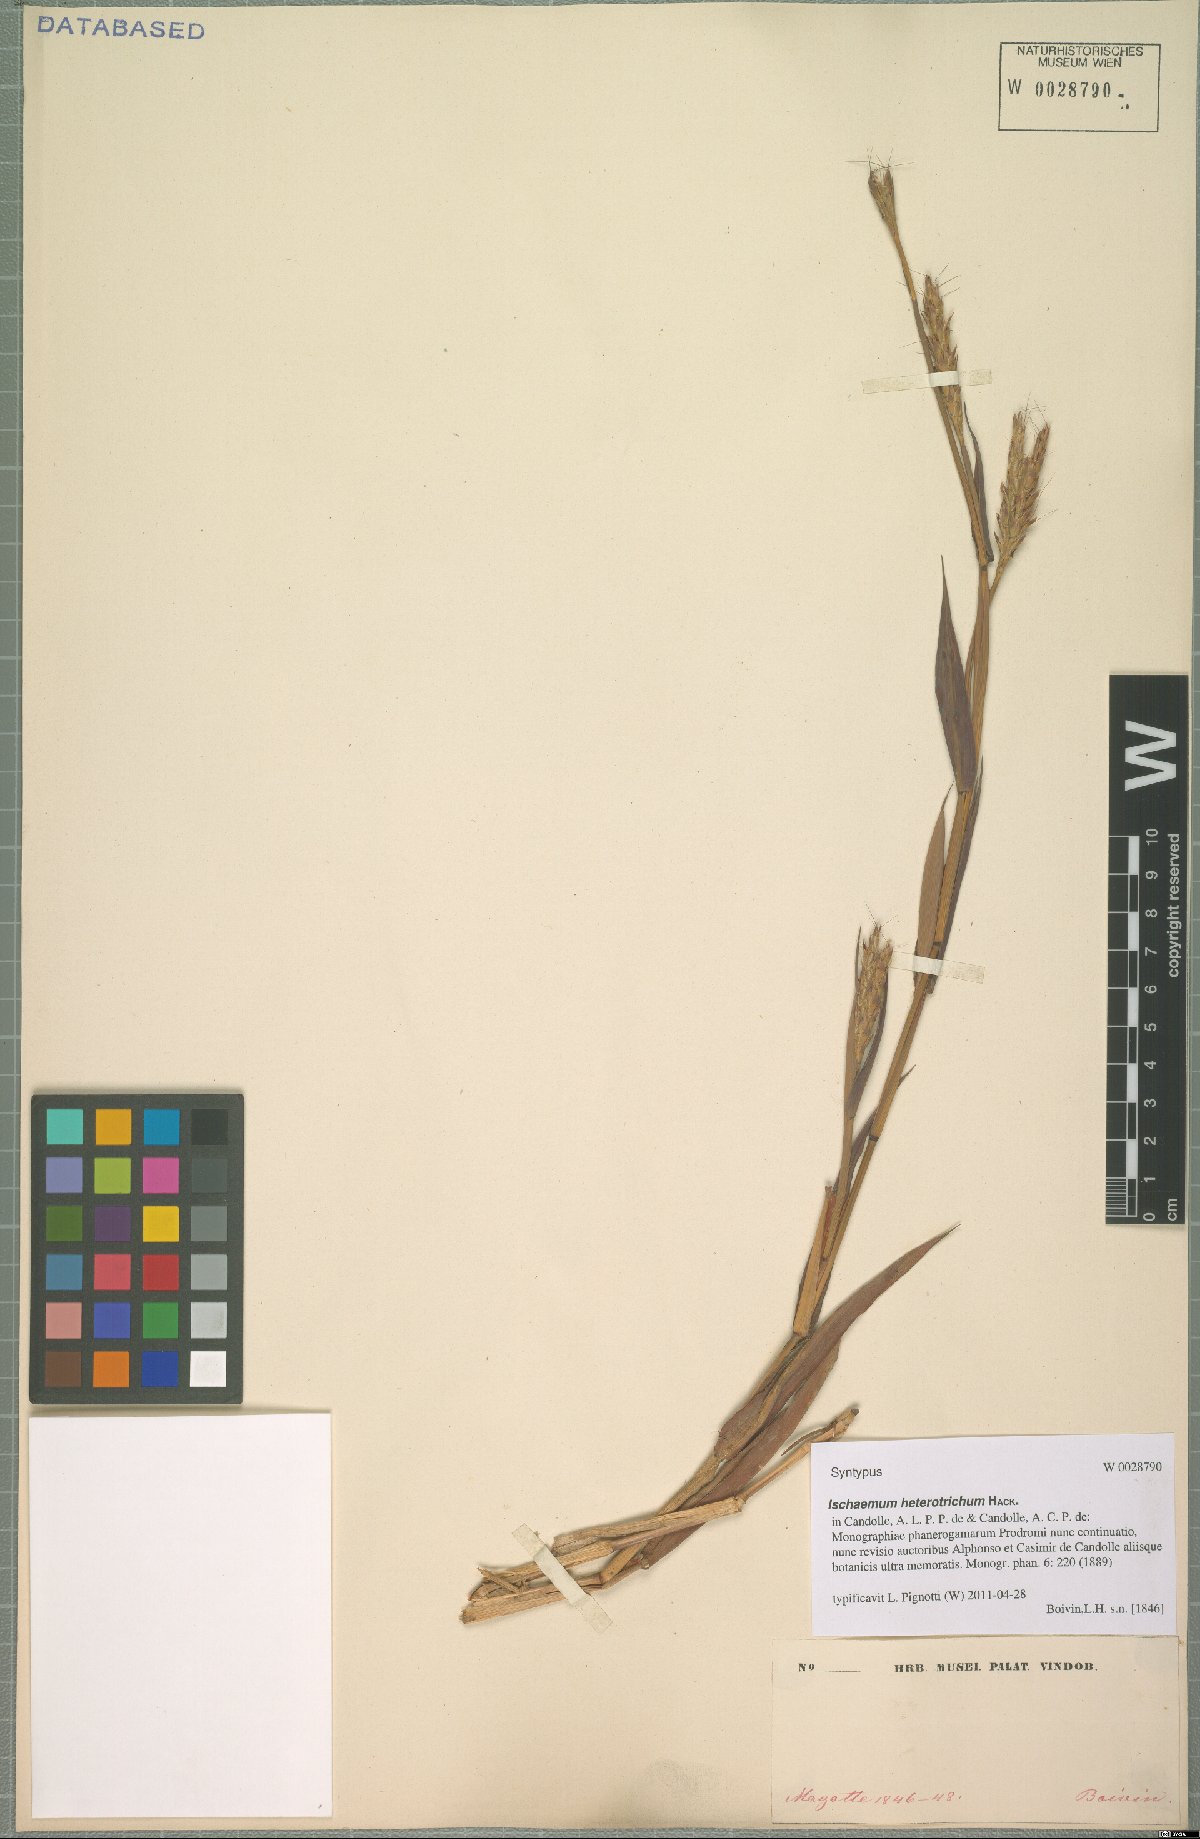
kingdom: Plantae
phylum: Tracheophyta
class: Liliopsida
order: Poales
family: Poaceae
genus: Ischaemum
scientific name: Ischaemum heterotrichum
